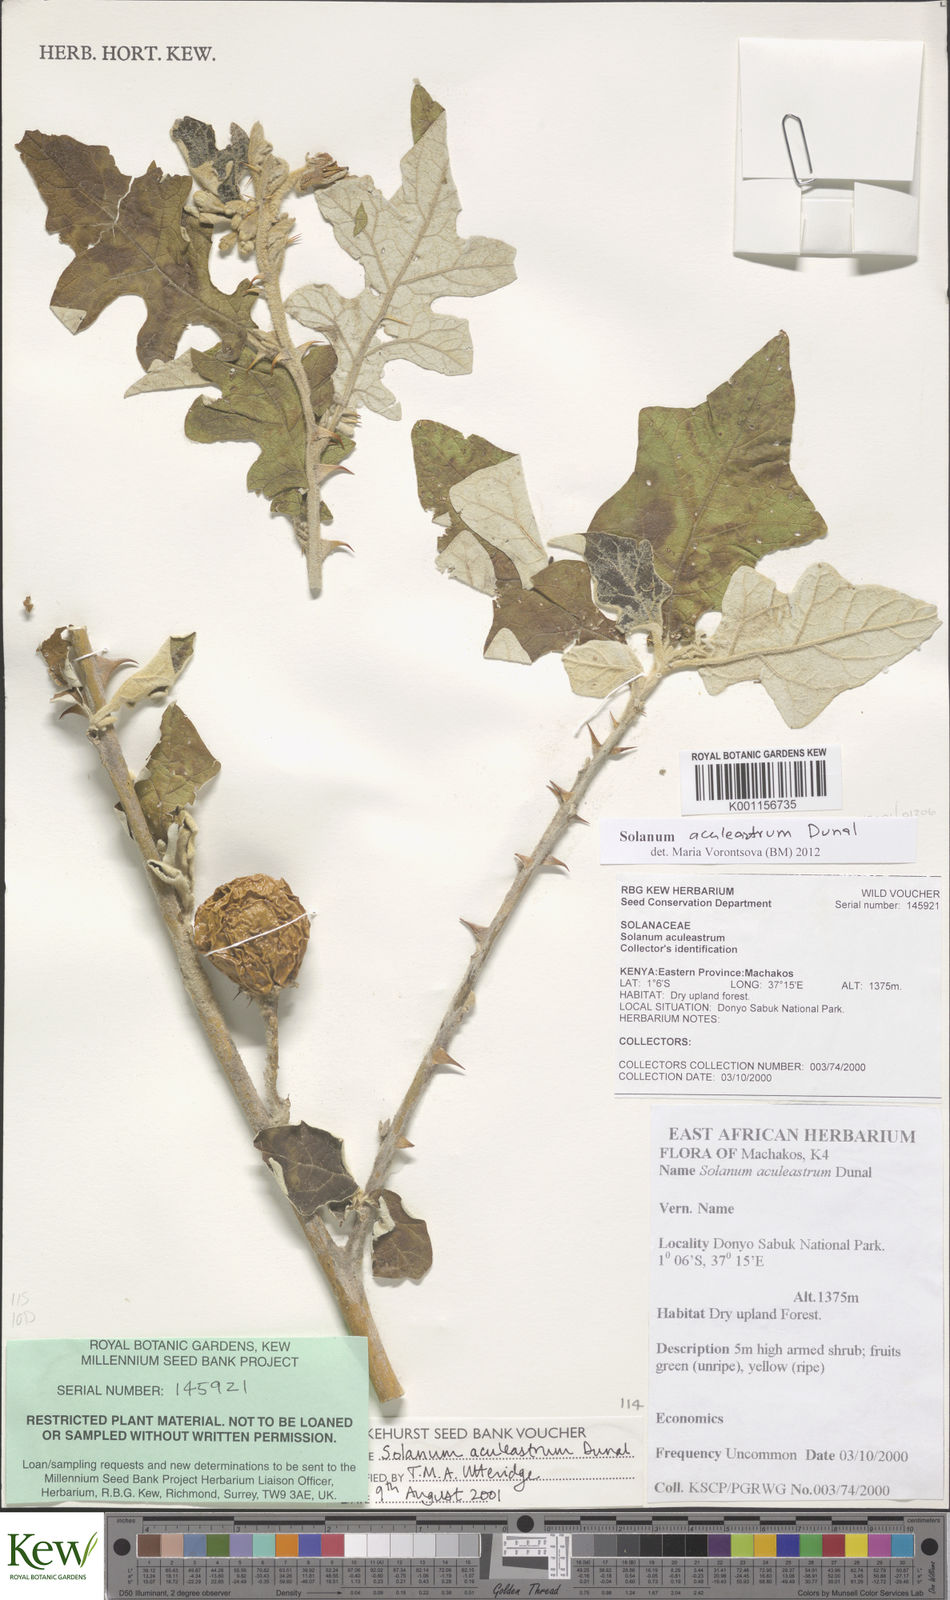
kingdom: Plantae
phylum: Tracheophyta
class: Magnoliopsida
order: Solanales
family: Solanaceae
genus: Solanum
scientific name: Solanum aculeastrum
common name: Goat bitter-apple
